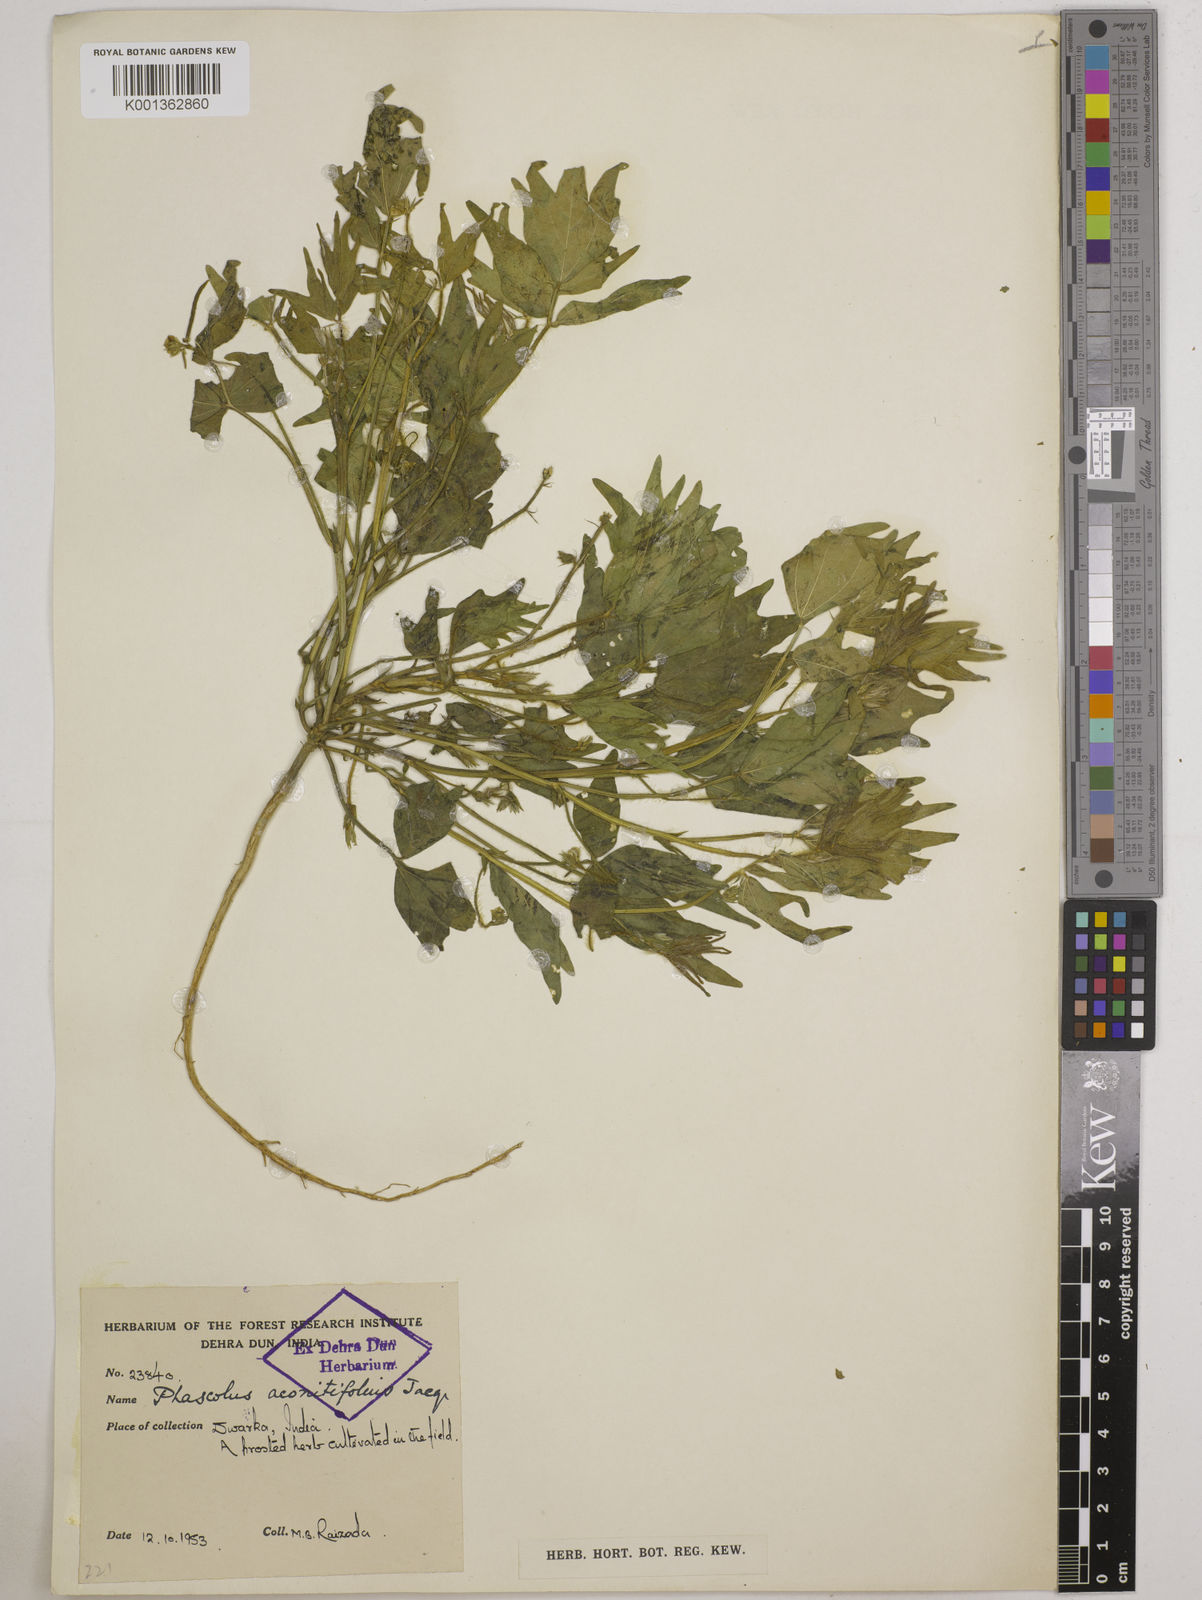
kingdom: Plantae
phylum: Tracheophyta
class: Magnoliopsida
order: Fabales
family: Fabaceae
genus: Vigna
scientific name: Vigna aconitifolia
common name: Dew bean
